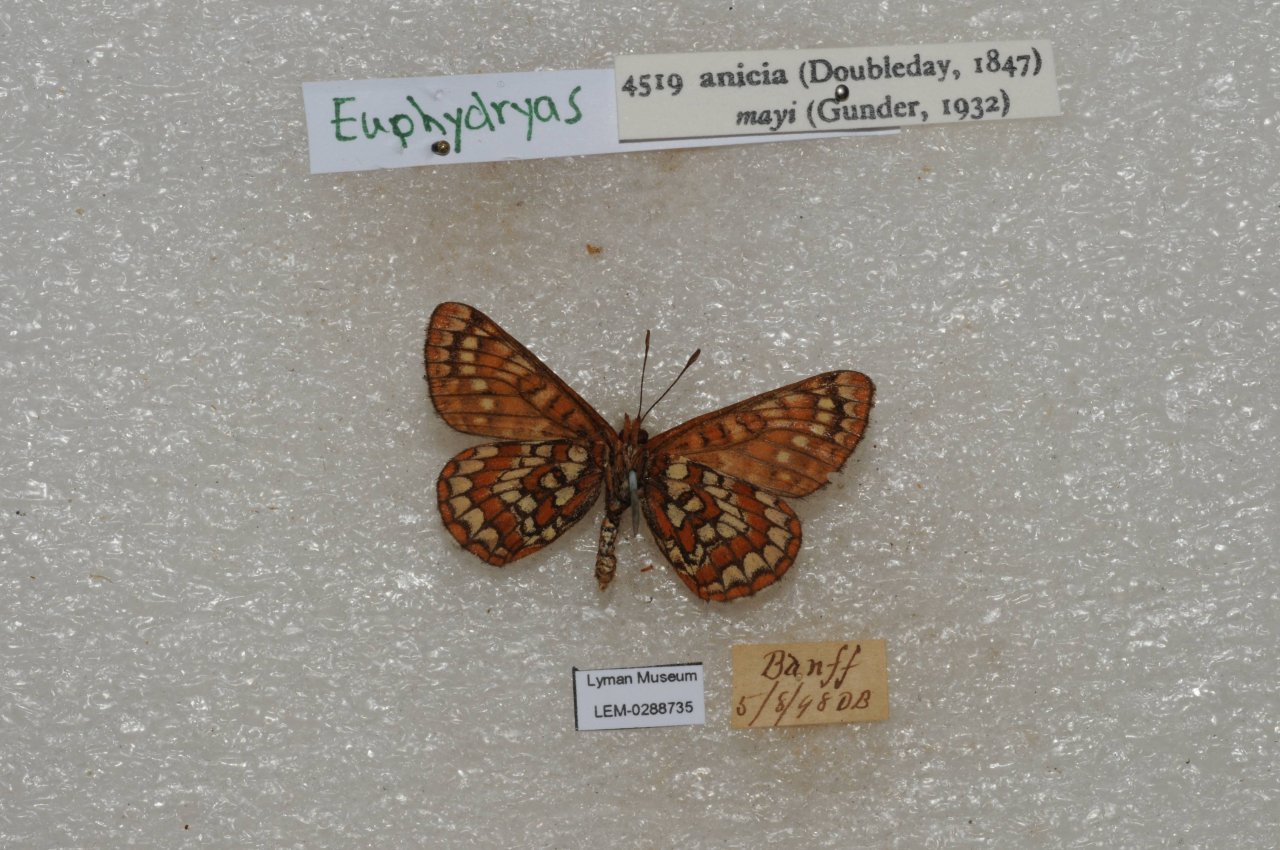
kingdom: Animalia
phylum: Arthropoda
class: Insecta
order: Lepidoptera
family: Nymphalidae
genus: Occidryas
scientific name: Occidryas anicia
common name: Anicia Checkerspot
